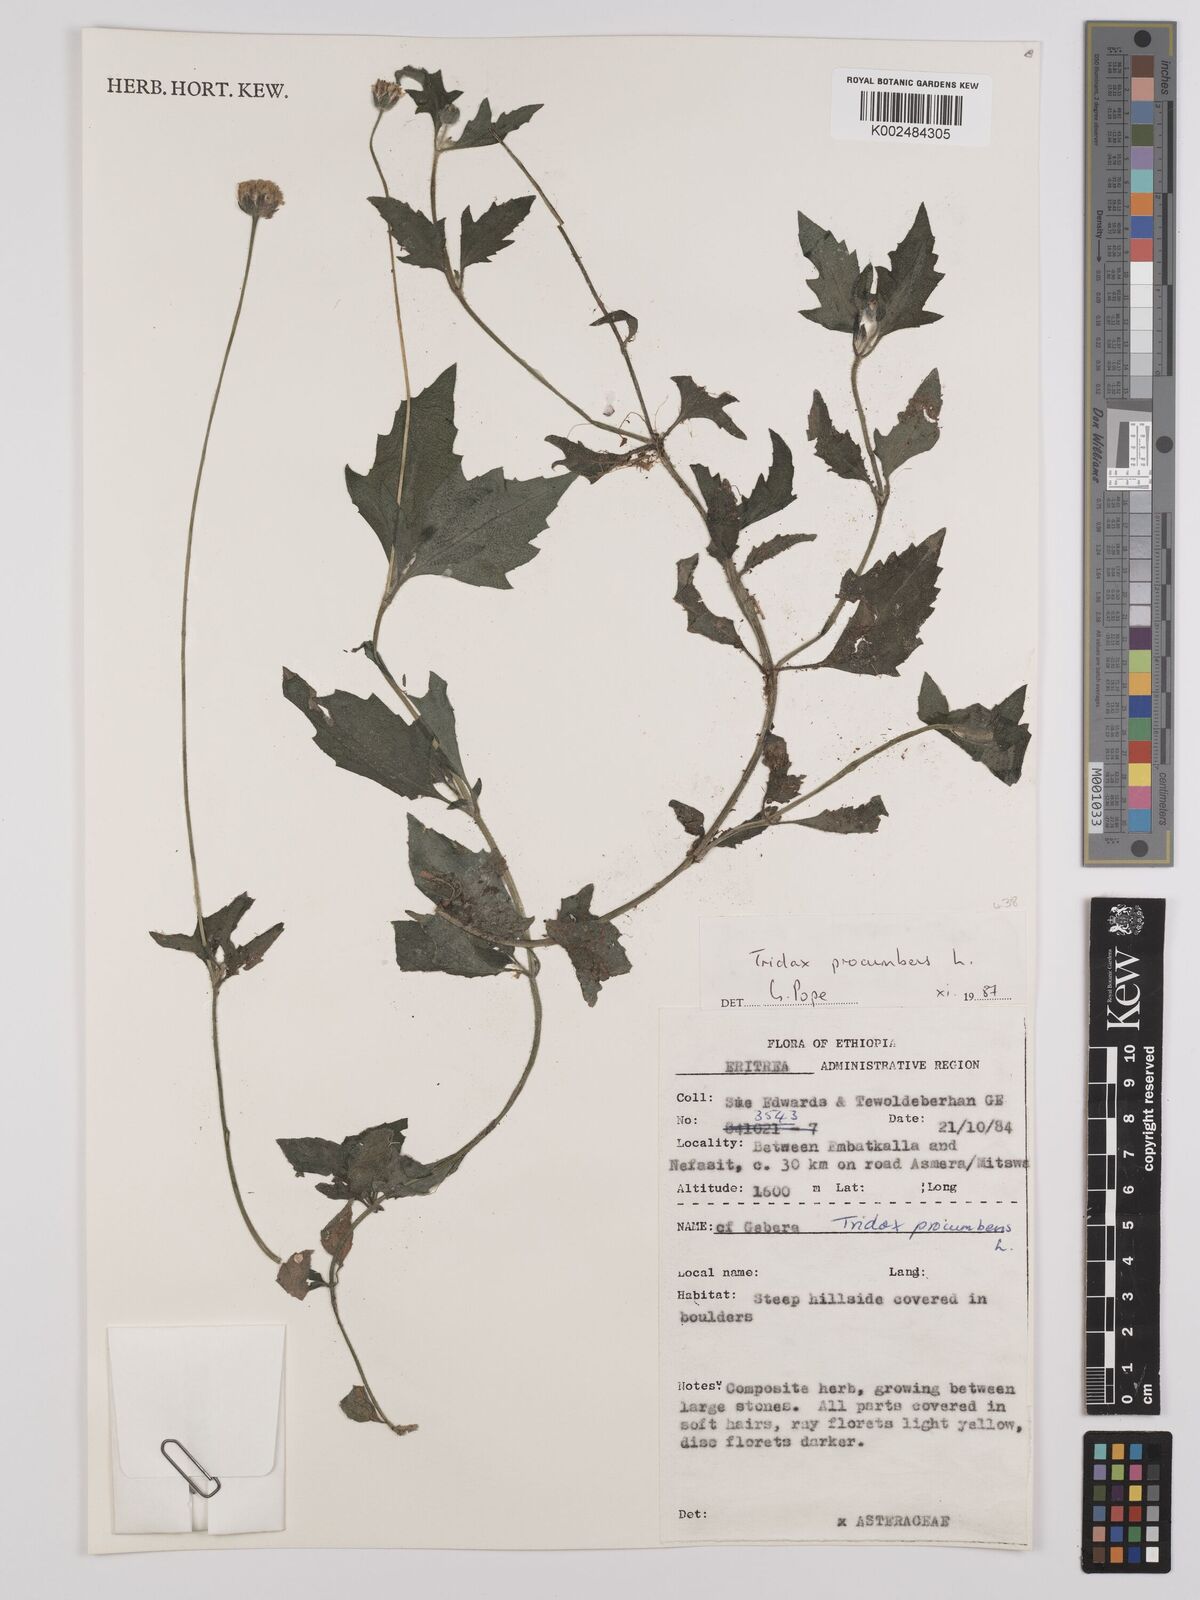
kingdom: Plantae
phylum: Tracheophyta
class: Magnoliopsida
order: Asterales
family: Asteraceae
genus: Tridax
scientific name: Tridax procumbens
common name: Coatbuttons
